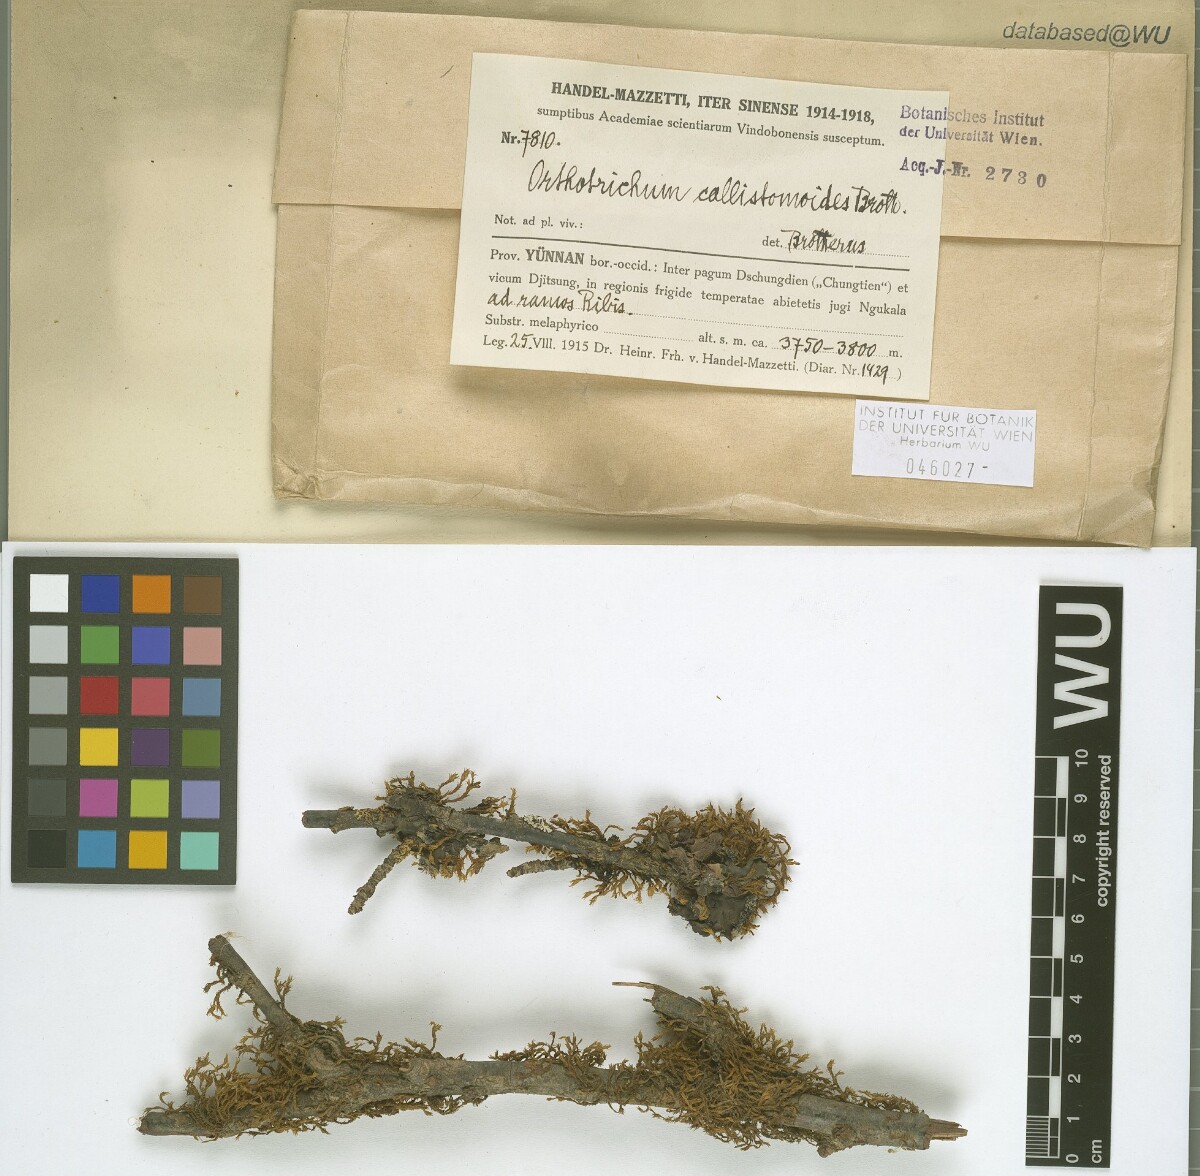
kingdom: Plantae
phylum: Bryophyta
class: Bryopsida
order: Orthotrichales
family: Orthotrichaceae
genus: Orthotrichum
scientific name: Orthotrichum callistomum
